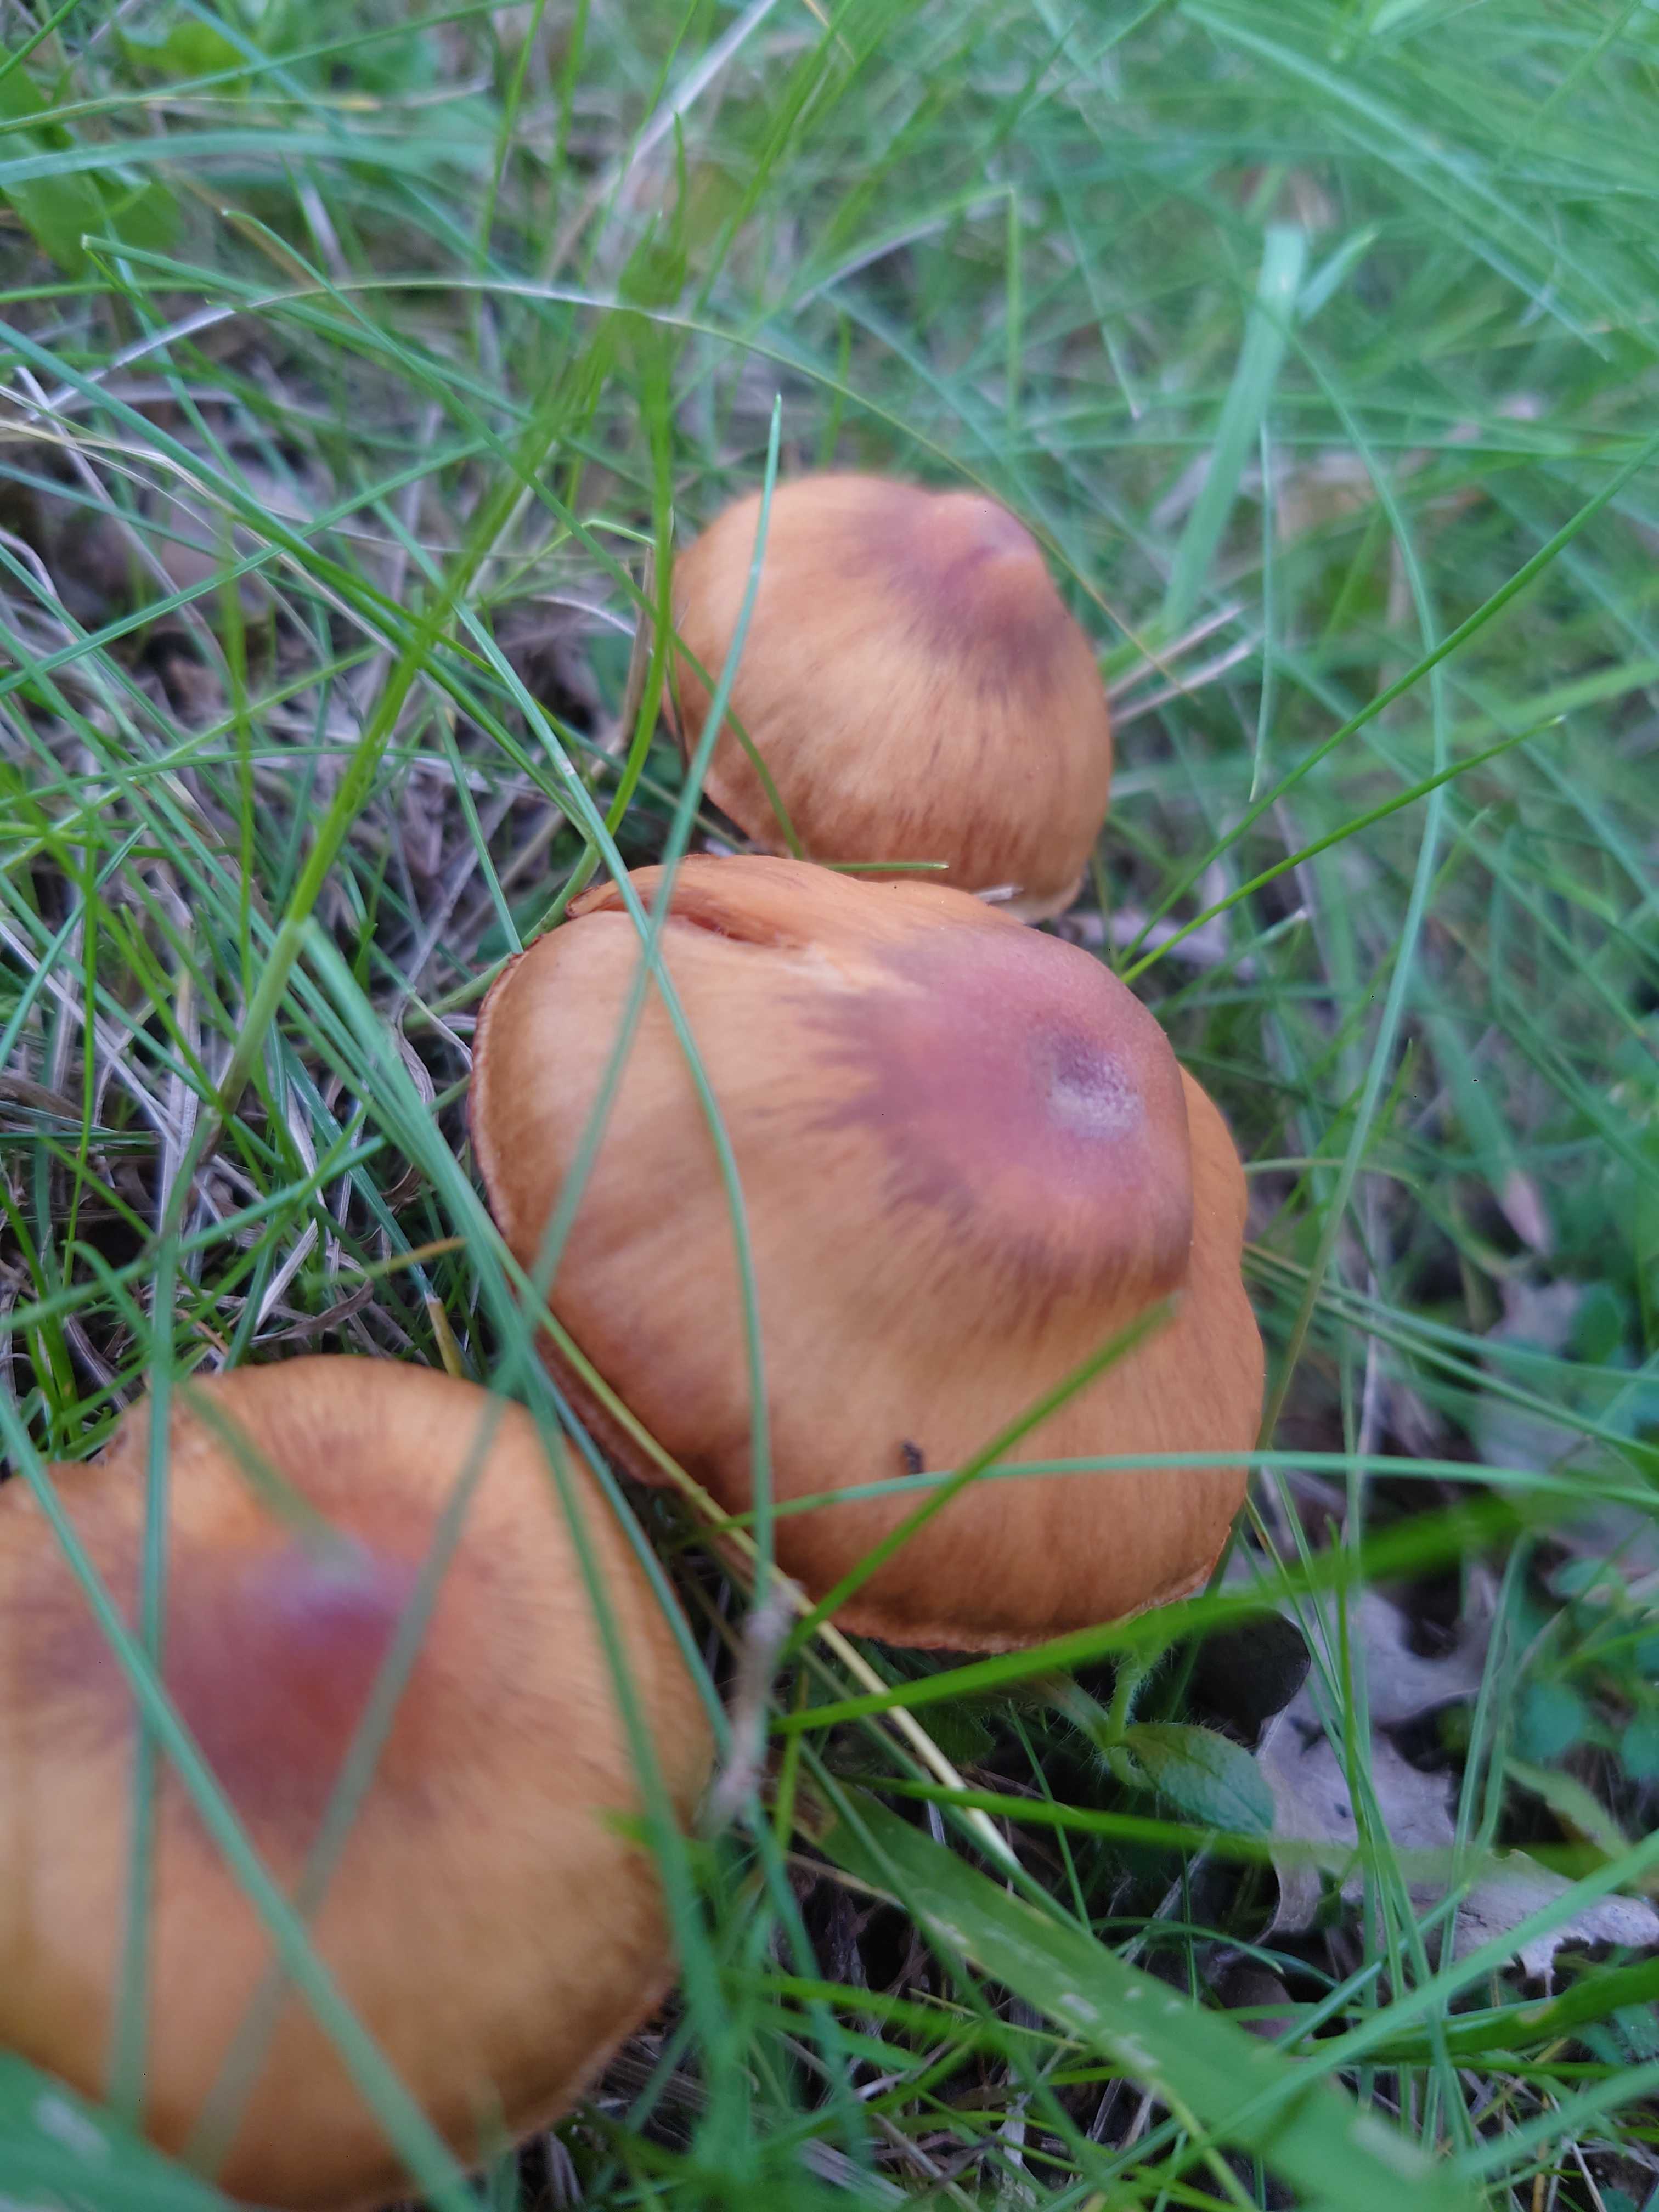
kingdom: Fungi
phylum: Basidiomycota
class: Agaricomycetes
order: Agaricales
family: Cortinariaceae
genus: Cortinarius
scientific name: Cortinarius
